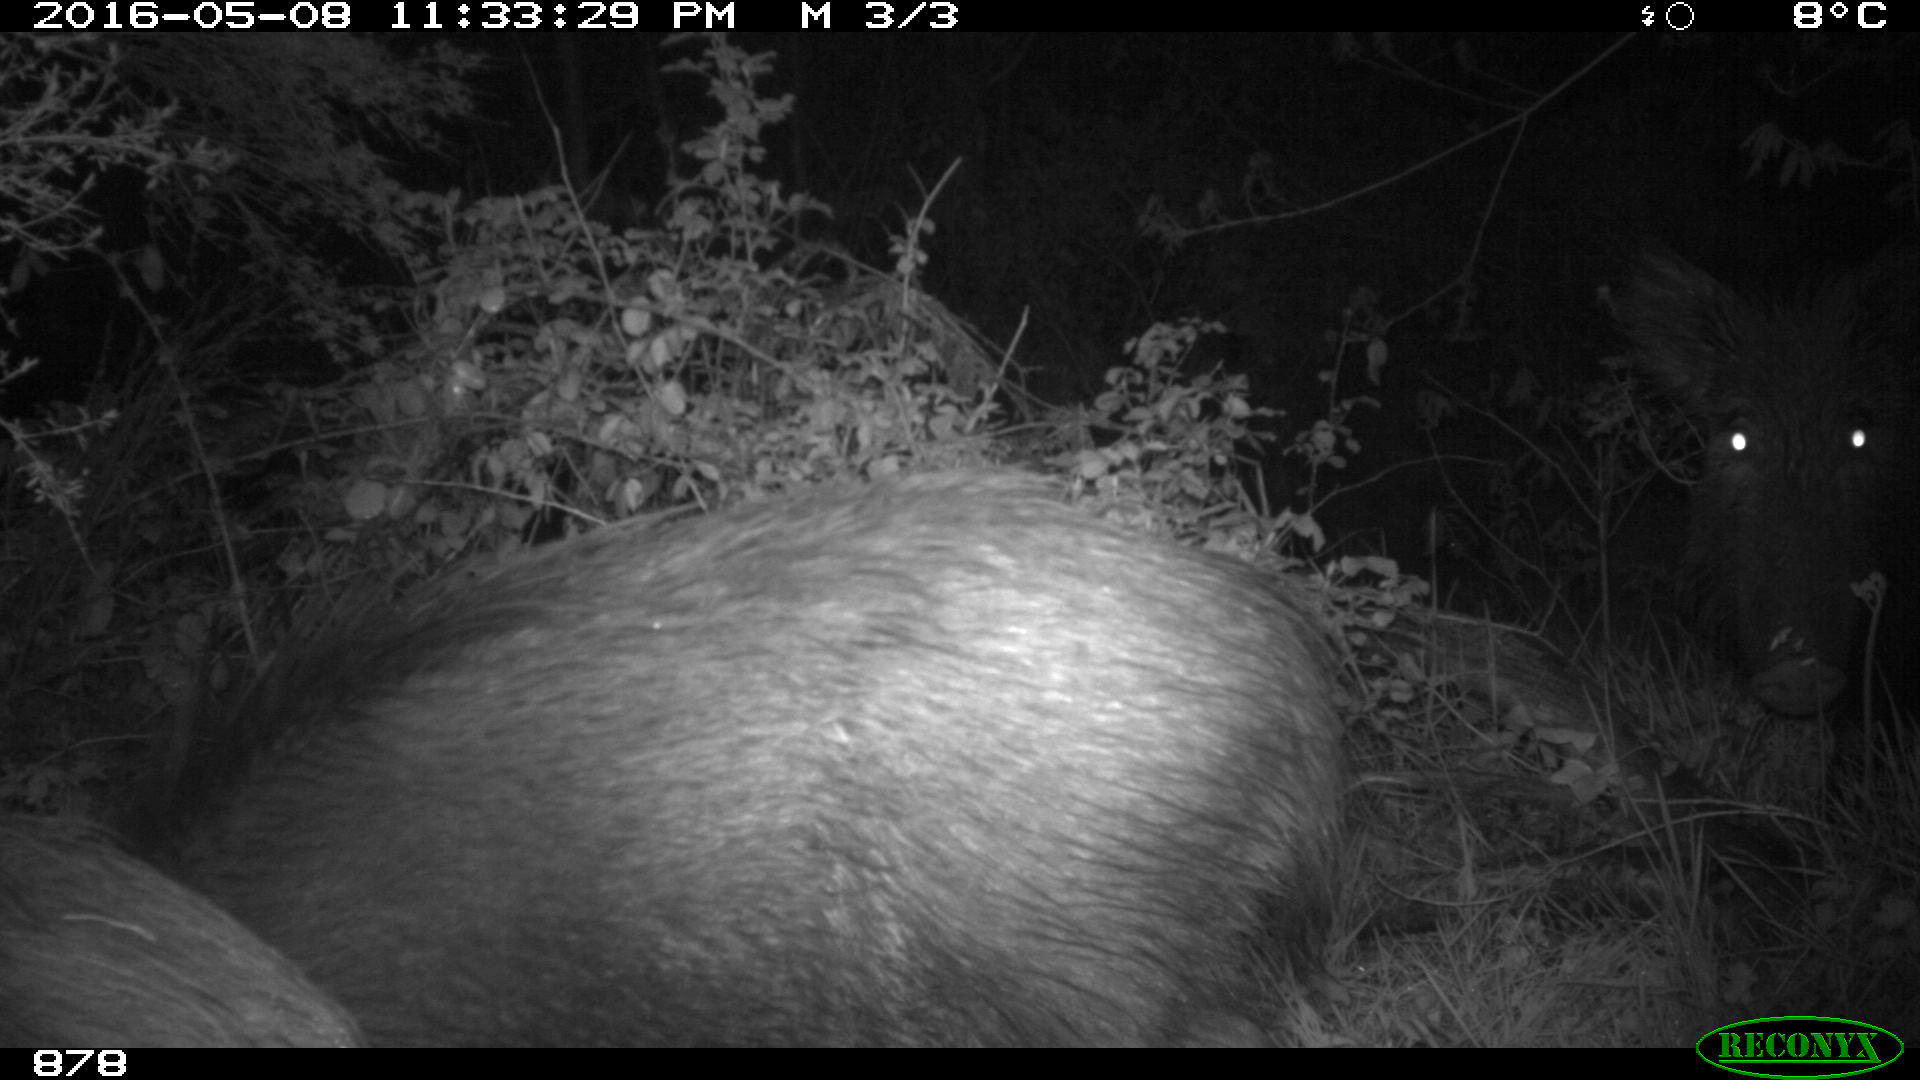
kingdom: Animalia
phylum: Chordata
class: Mammalia
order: Artiodactyla
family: Suidae
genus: Sus
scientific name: Sus scrofa
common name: Wild boar
